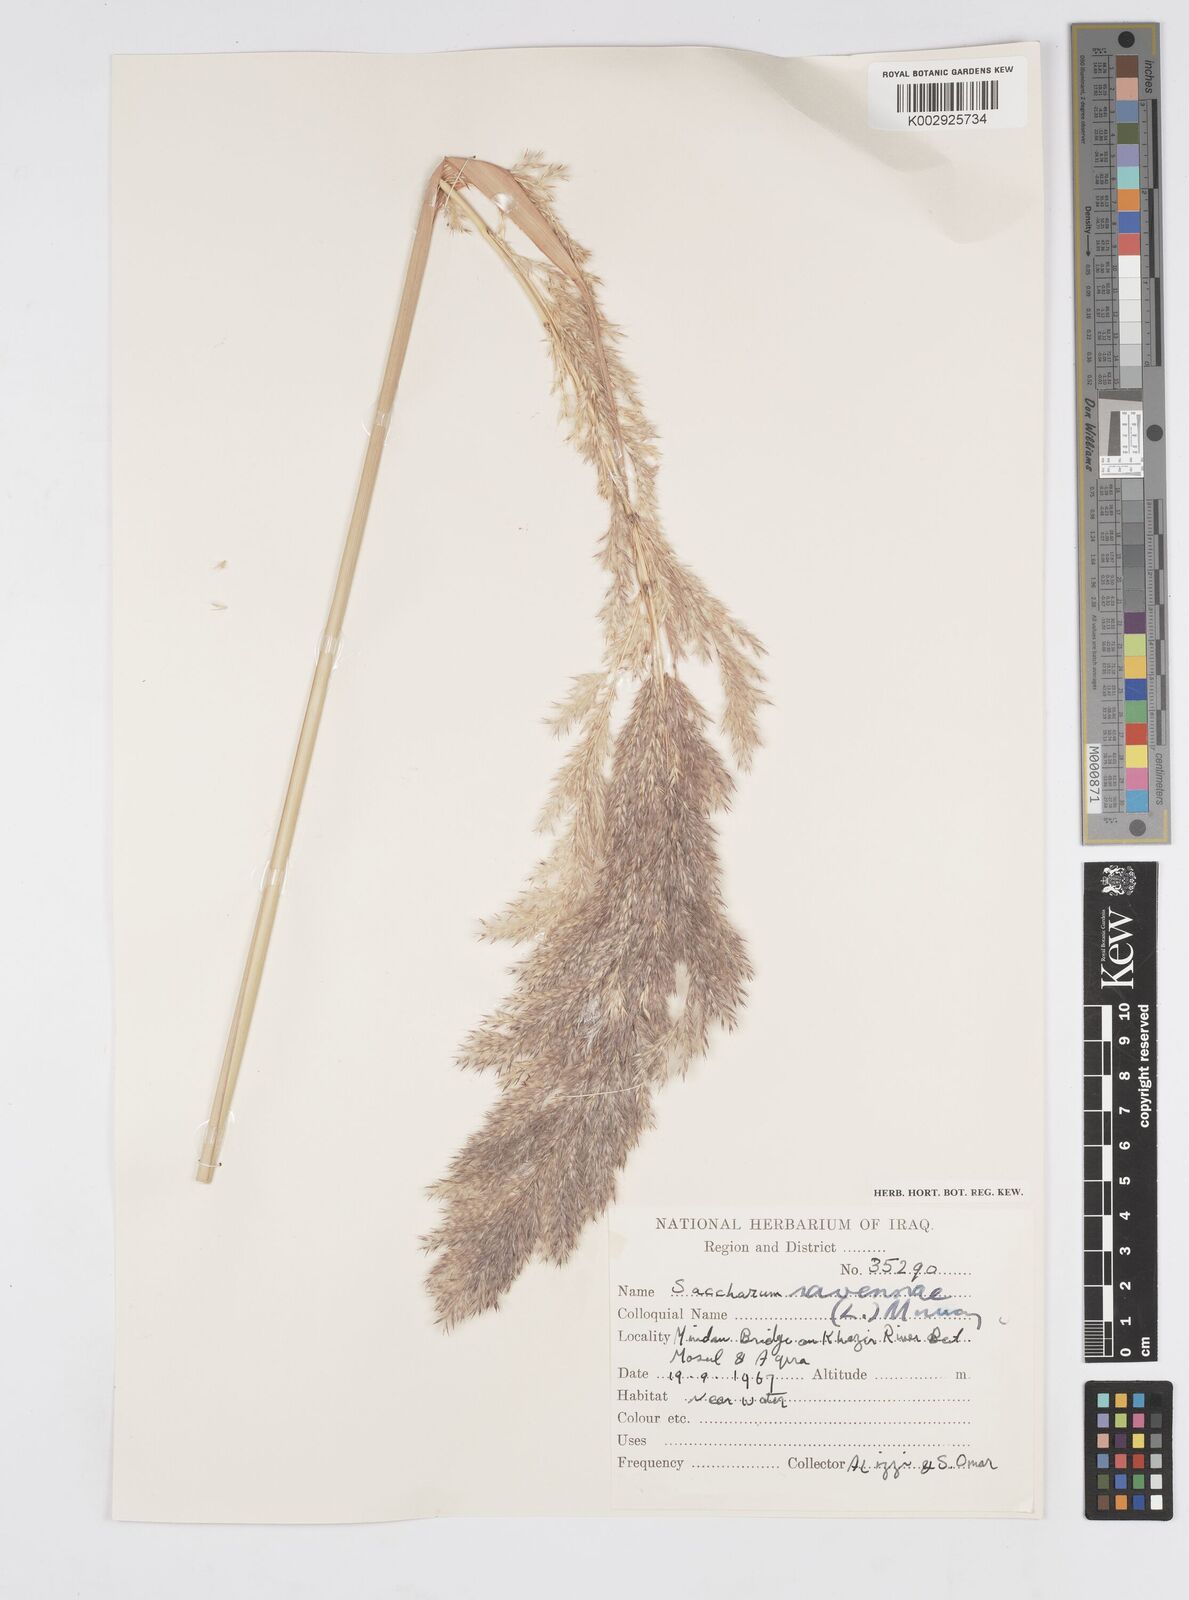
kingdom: Plantae
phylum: Tracheophyta
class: Liliopsida
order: Poales
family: Poaceae
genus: Tripidium
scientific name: Tripidium ravennae
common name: Ravenna grass
